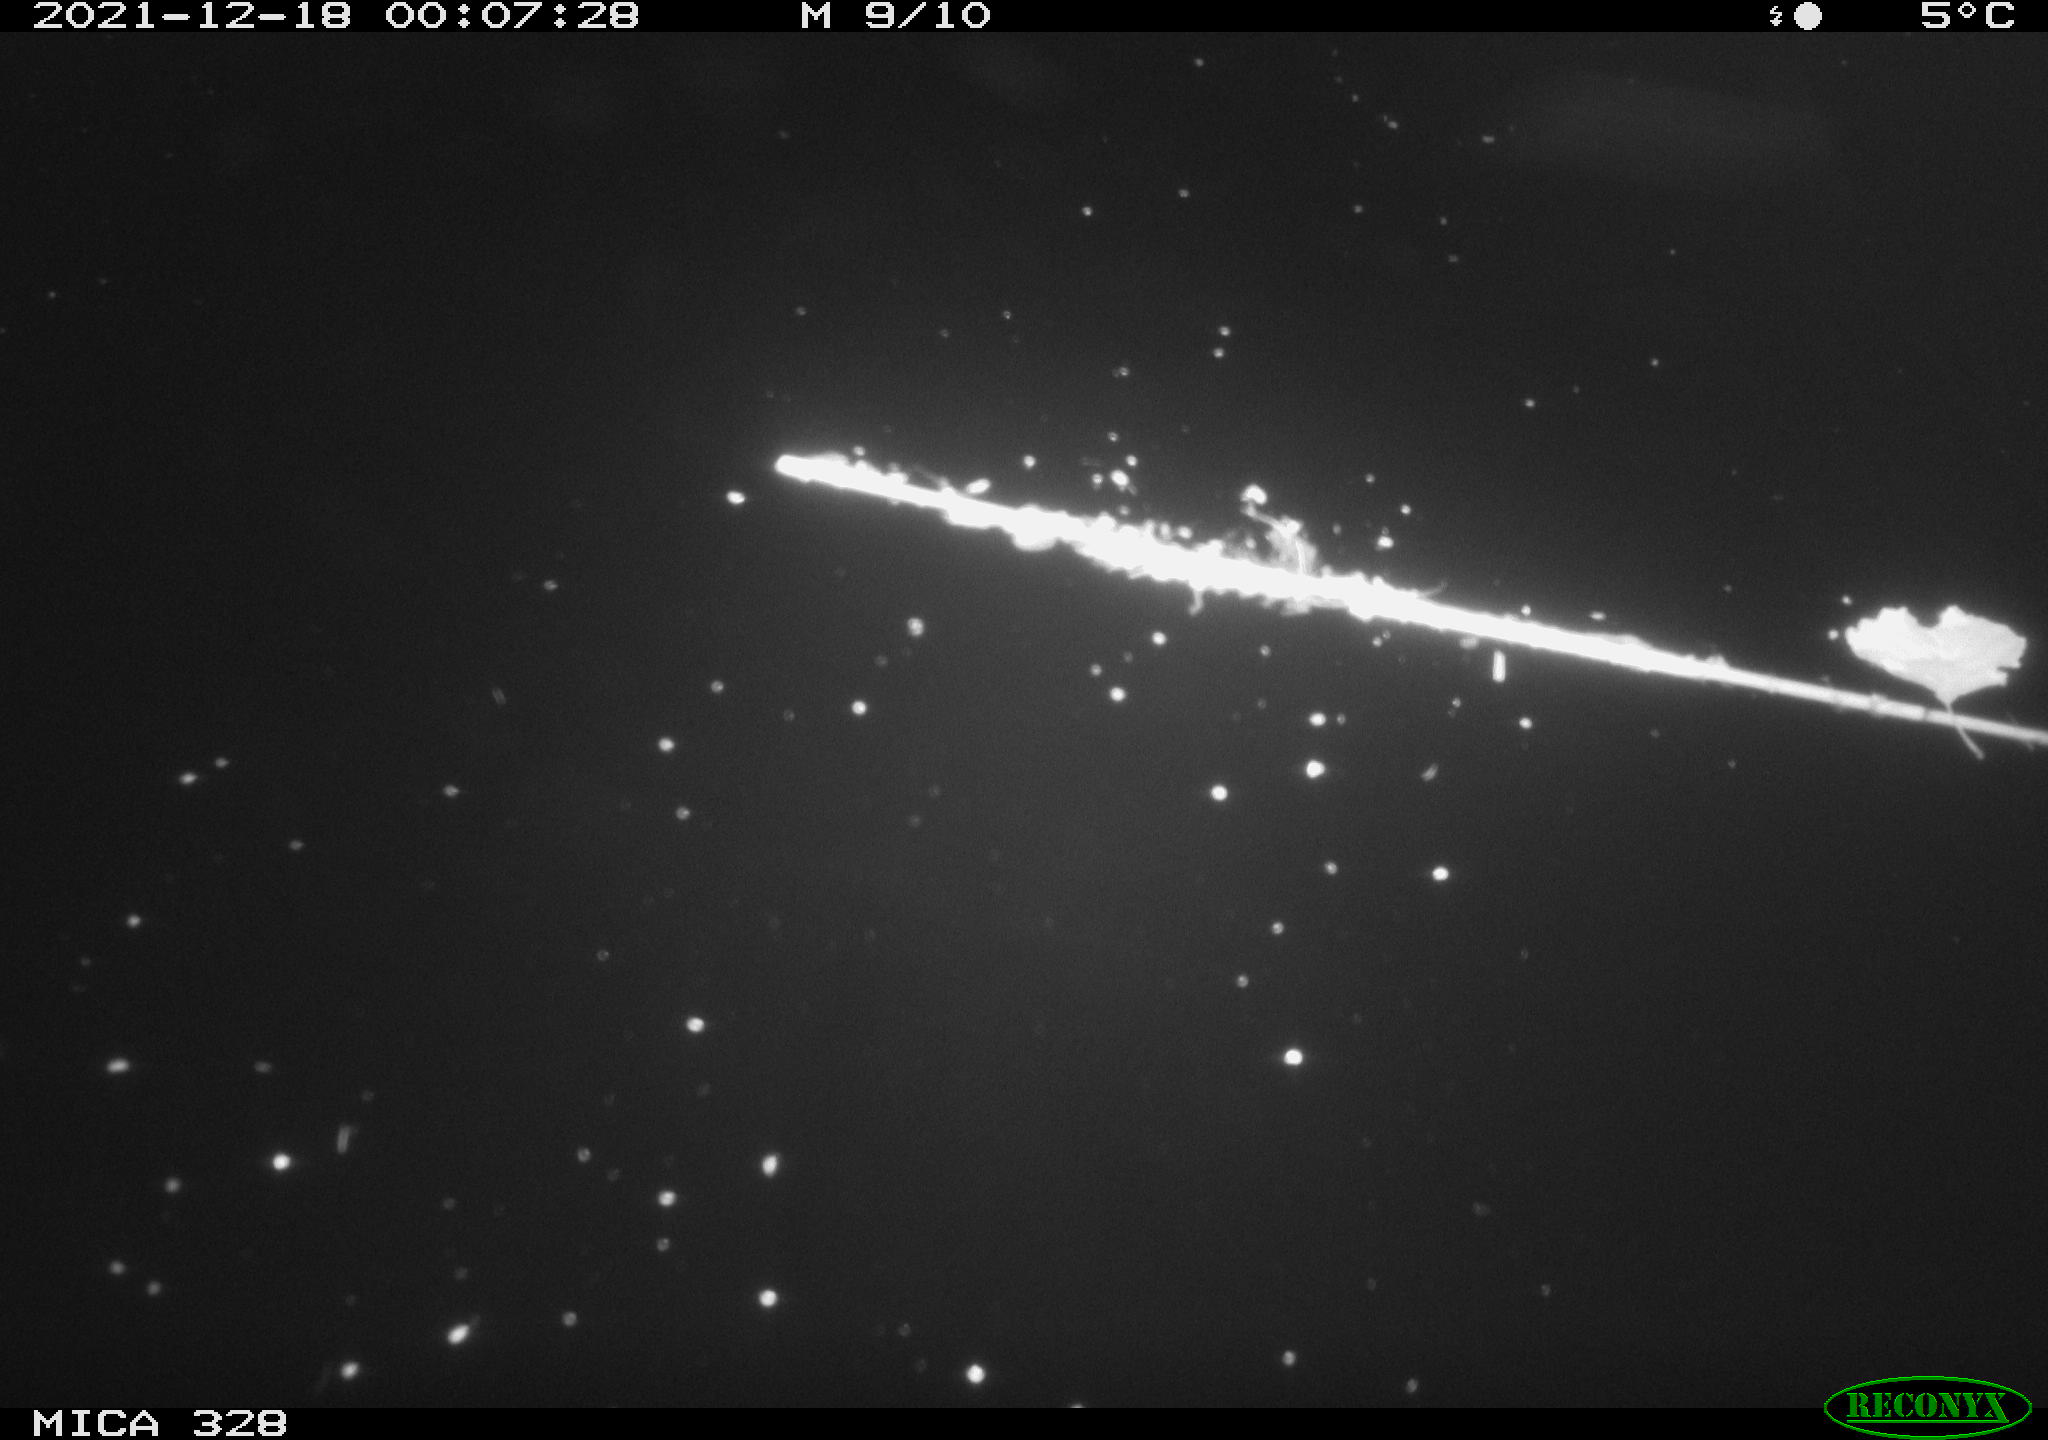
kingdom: Animalia
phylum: Chordata
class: Aves
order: Anseriformes
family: Anatidae
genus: Anas
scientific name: Anas platyrhynchos
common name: Mallard
